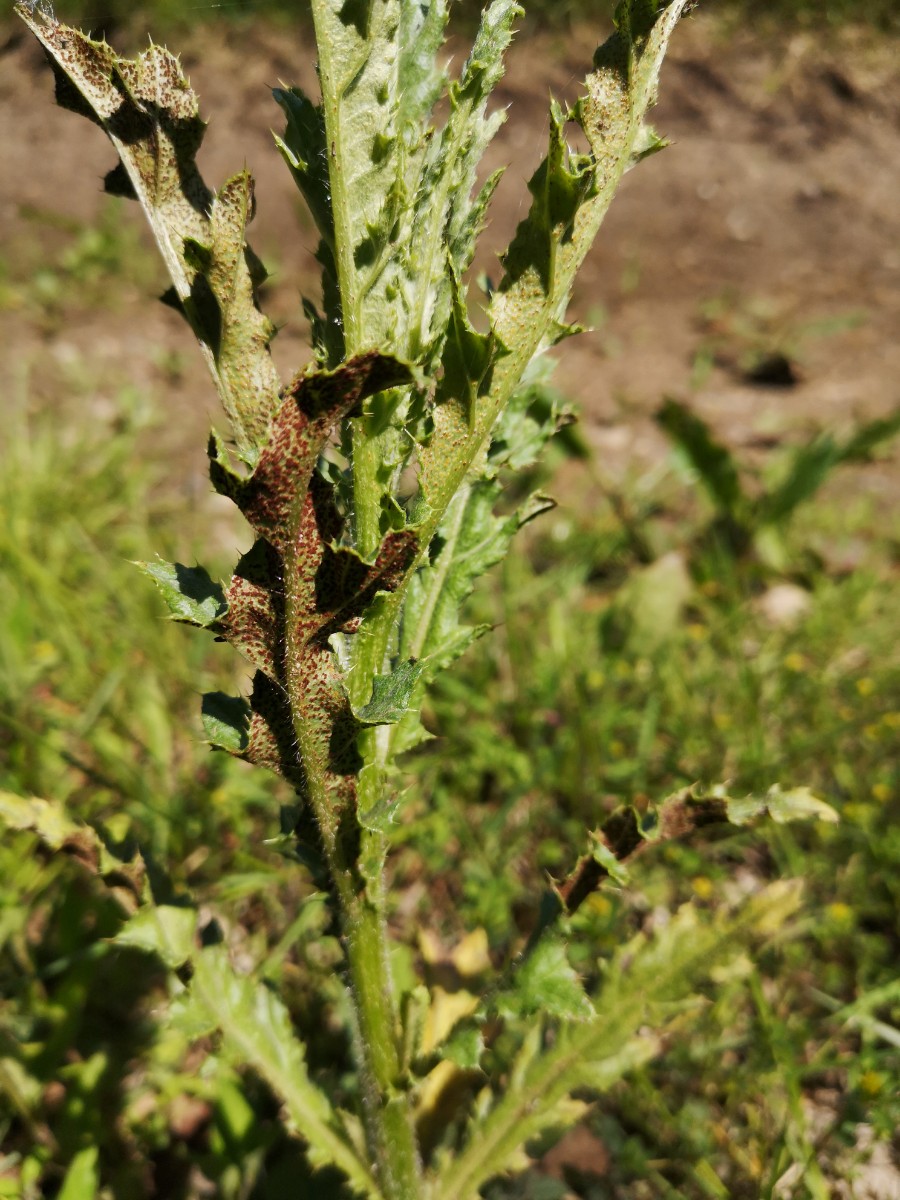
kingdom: Fungi
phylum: Basidiomycota
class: Pucciniomycetes
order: Pucciniales
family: Pucciniaceae
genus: Puccinia
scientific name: Puccinia suaveolens
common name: tidsel-tvecellerust
